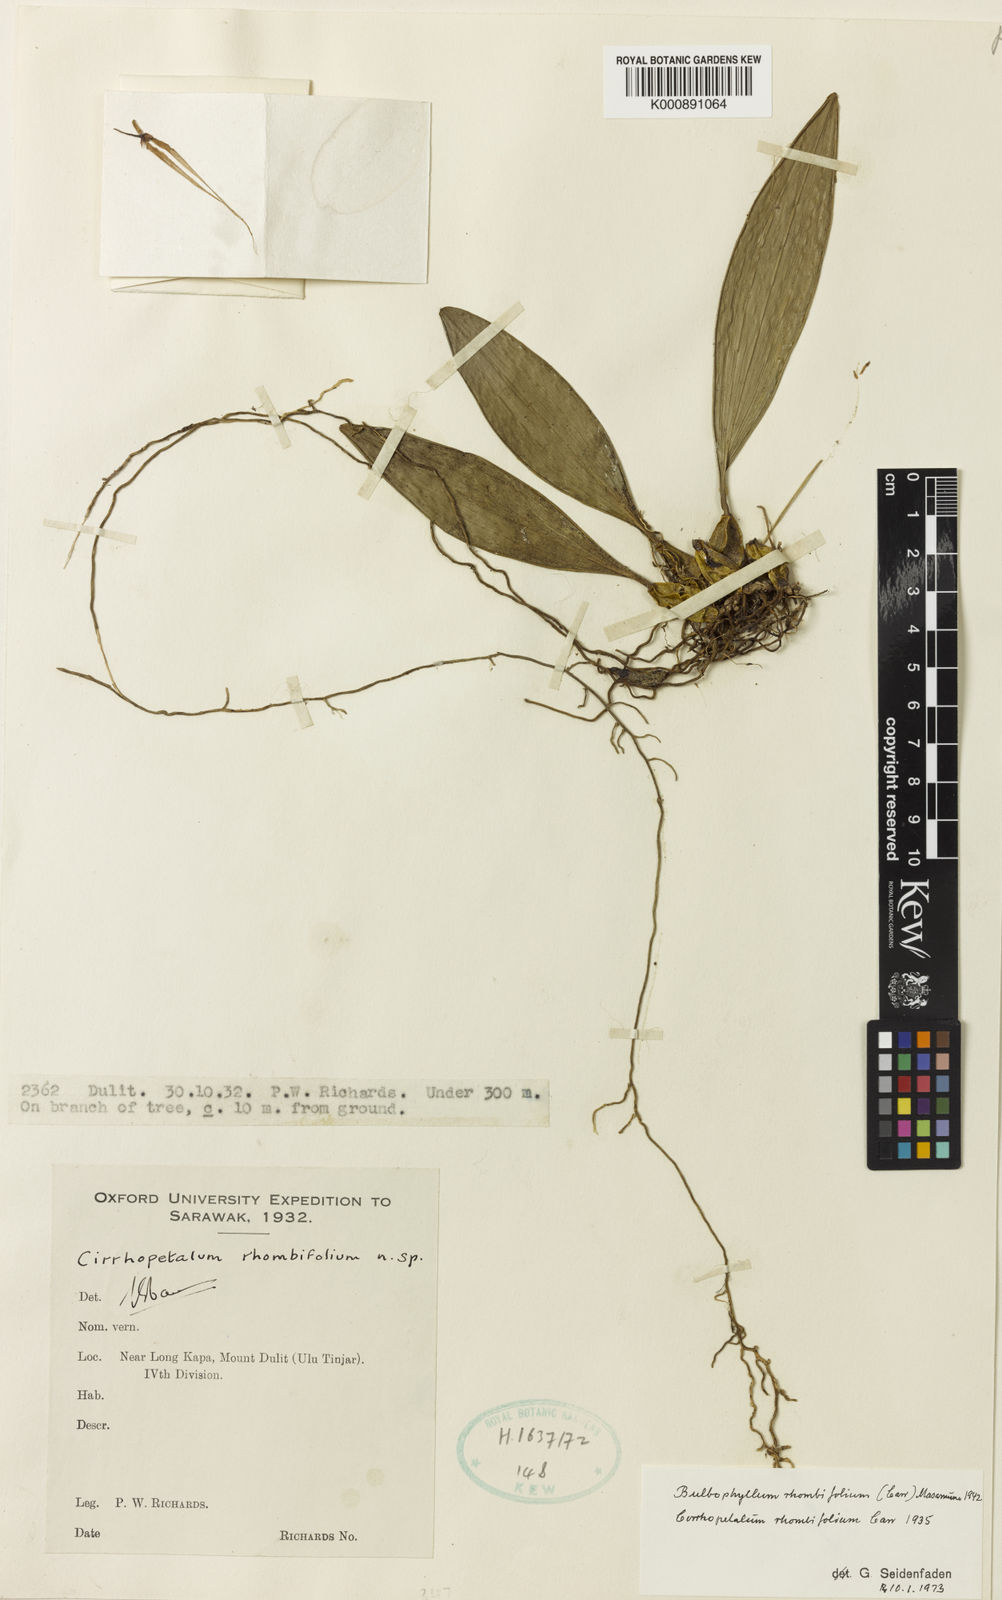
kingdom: Plantae
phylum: Tracheophyta
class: Liliopsida
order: Asparagales
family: Orchidaceae
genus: Bulbophyllum
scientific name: Bulbophyllum hymenochilum
